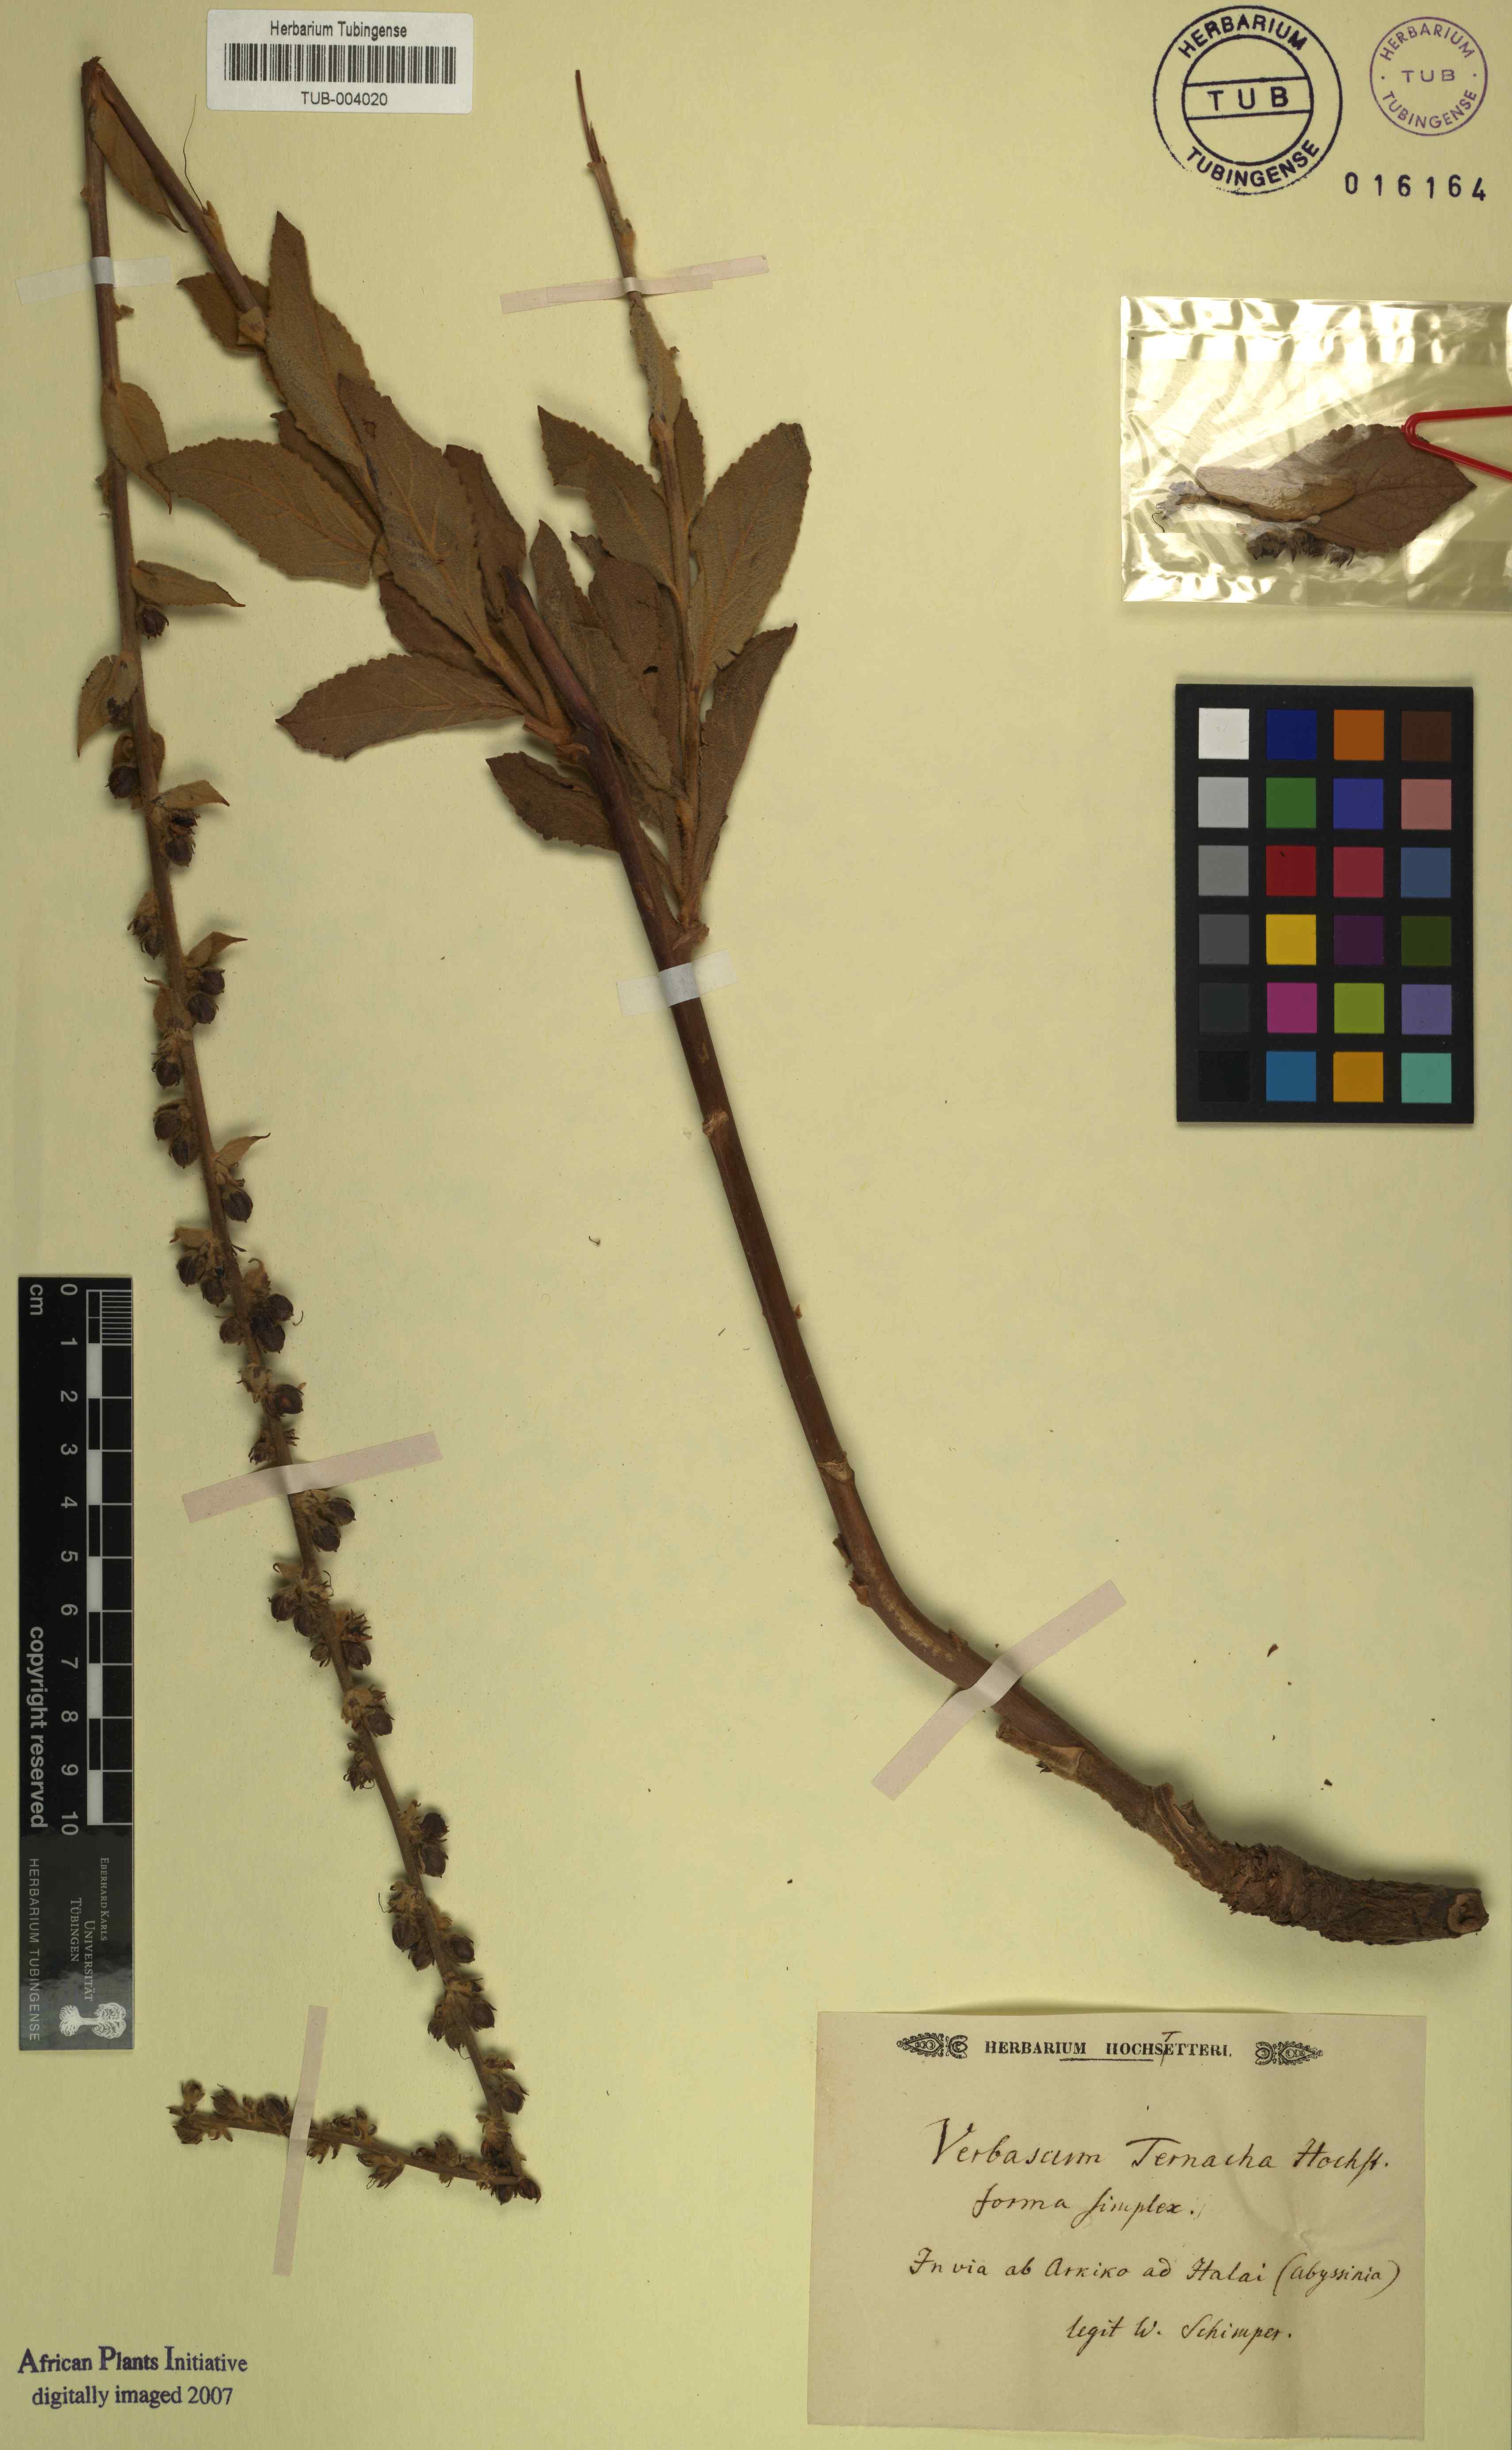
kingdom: Plantae
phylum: Tracheophyta
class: Magnoliopsida
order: Lamiales
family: Scrophulariaceae
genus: Verbascum
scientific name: Verbascum phlomoides
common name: Orange mullein
